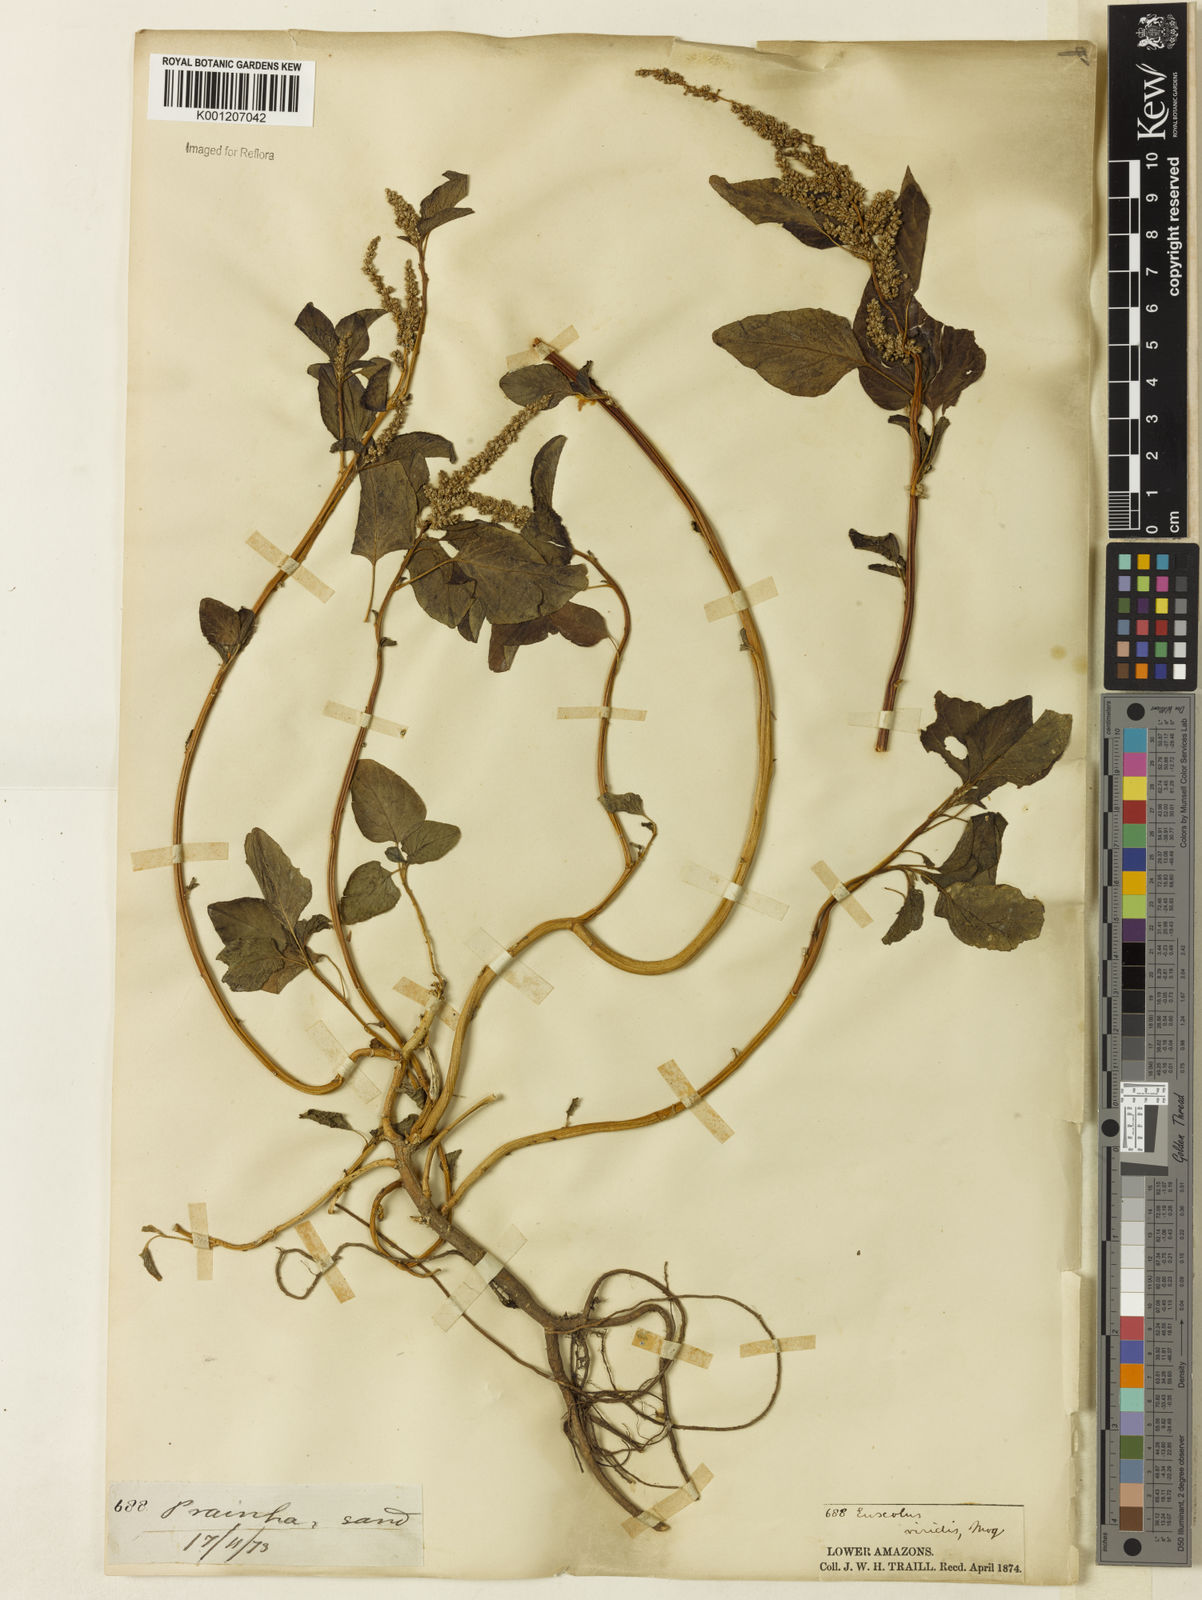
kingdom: Plantae
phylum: Tracheophyta
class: Magnoliopsida
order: Caryophyllales
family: Amaranthaceae
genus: Amaranthus
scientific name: Amaranthus
